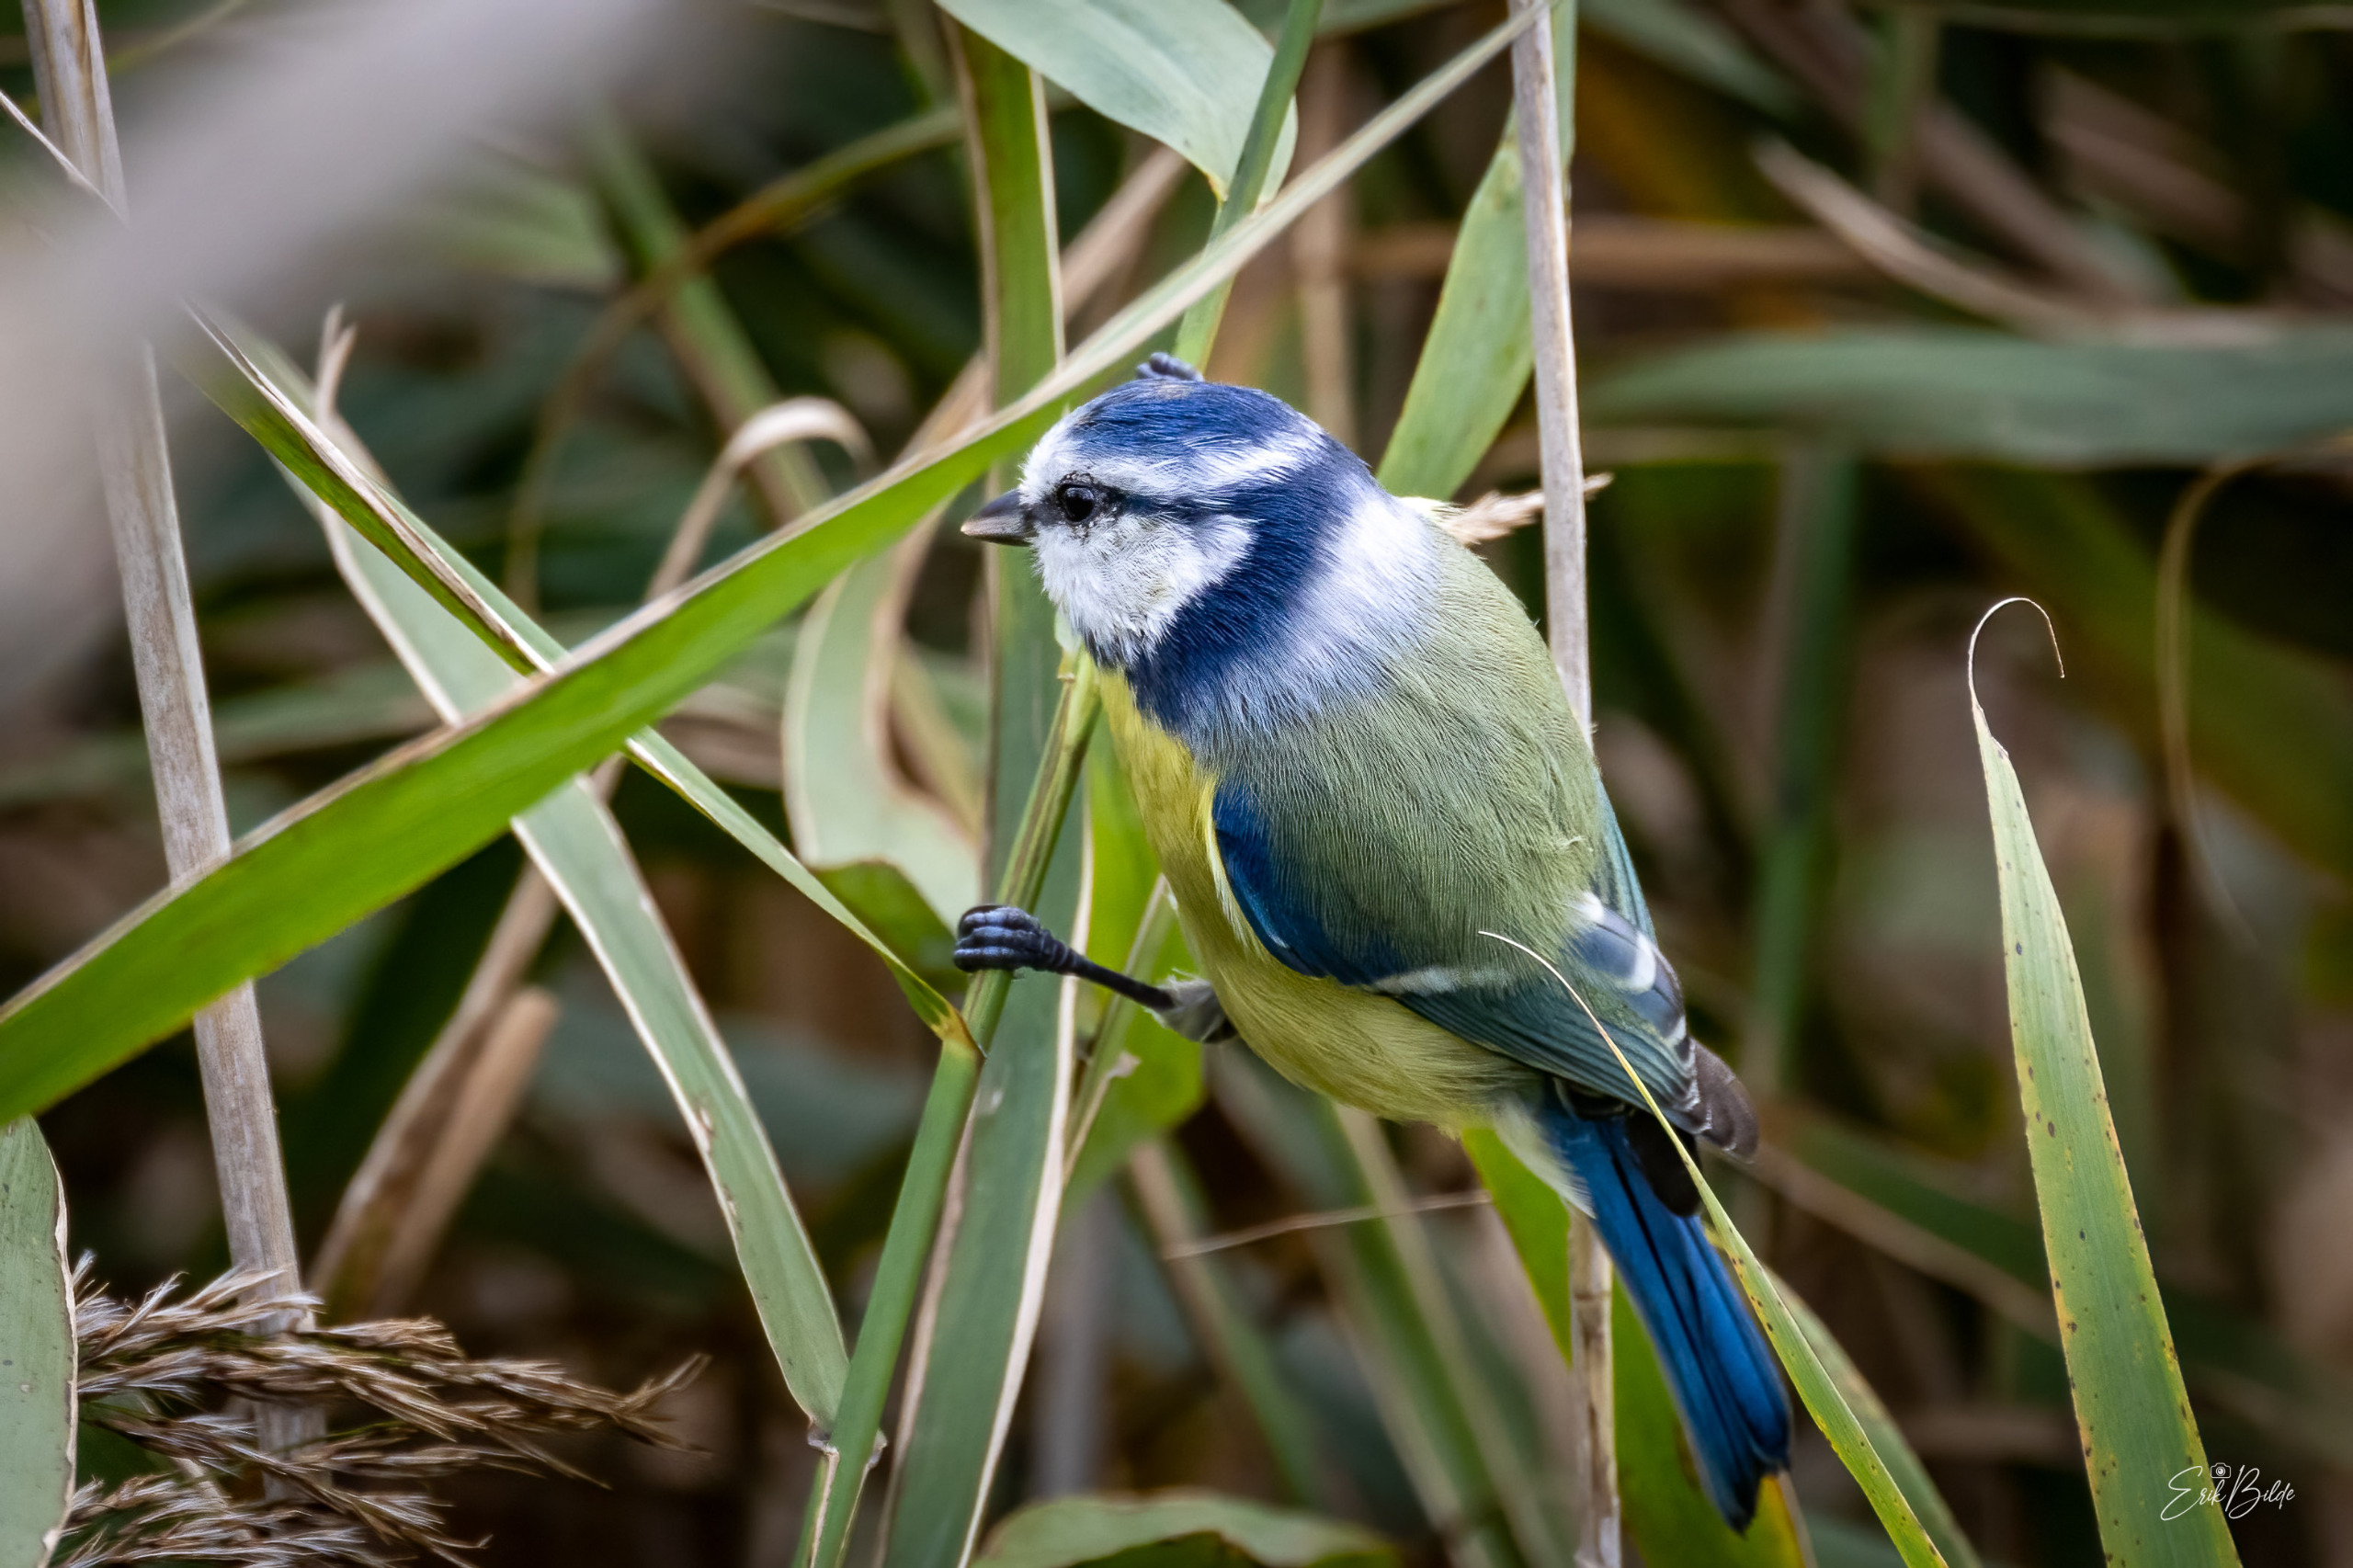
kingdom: Animalia
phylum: Chordata
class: Aves
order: Passeriformes
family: Paridae
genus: Cyanistes
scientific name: Cyanistes caeruleus
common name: Blåmejse
